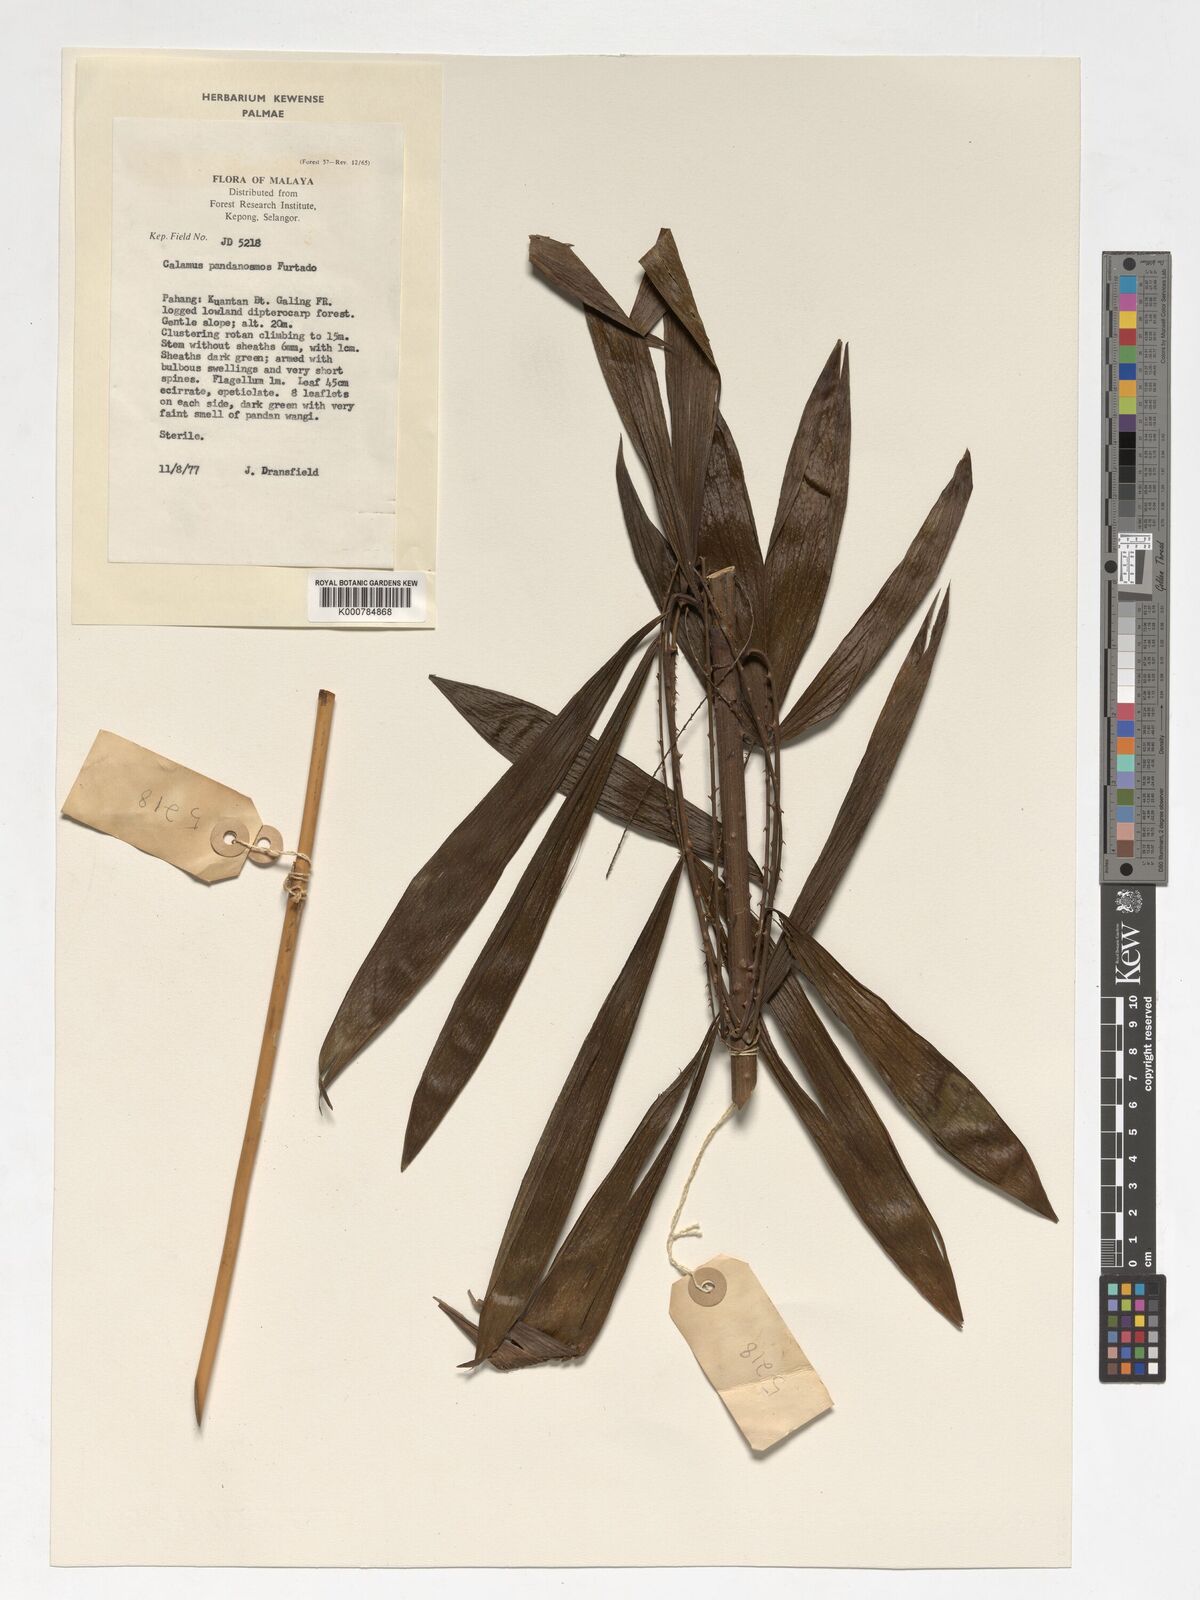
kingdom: Plantae
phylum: Tracheophyta
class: Liliopsida
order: Arecales
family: Arecaceae
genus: Calamus
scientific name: Calamus pandanosmus
